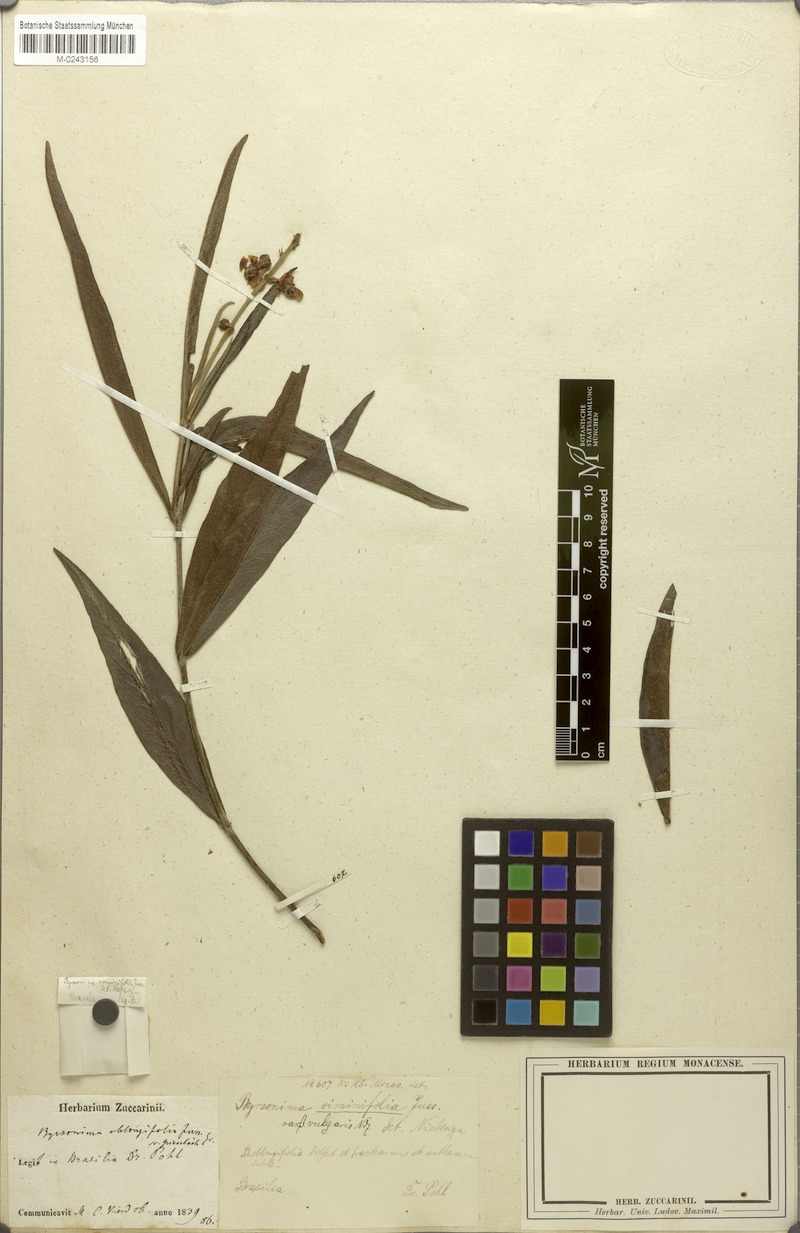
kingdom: Plantae
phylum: Tracheophyta
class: Magnoliopsida
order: Malpighiales
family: Malpighiaceae
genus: Byrsonima
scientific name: Byrsonima viminifolia
